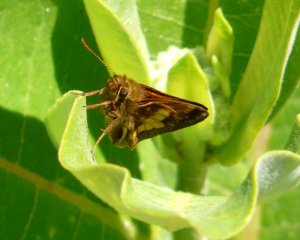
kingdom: Animalia
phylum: Arthropoda
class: Insecta
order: Lepidoptera
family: Hesperiidae
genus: Lon
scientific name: Lon hobomok
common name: Hobomok Skipper
